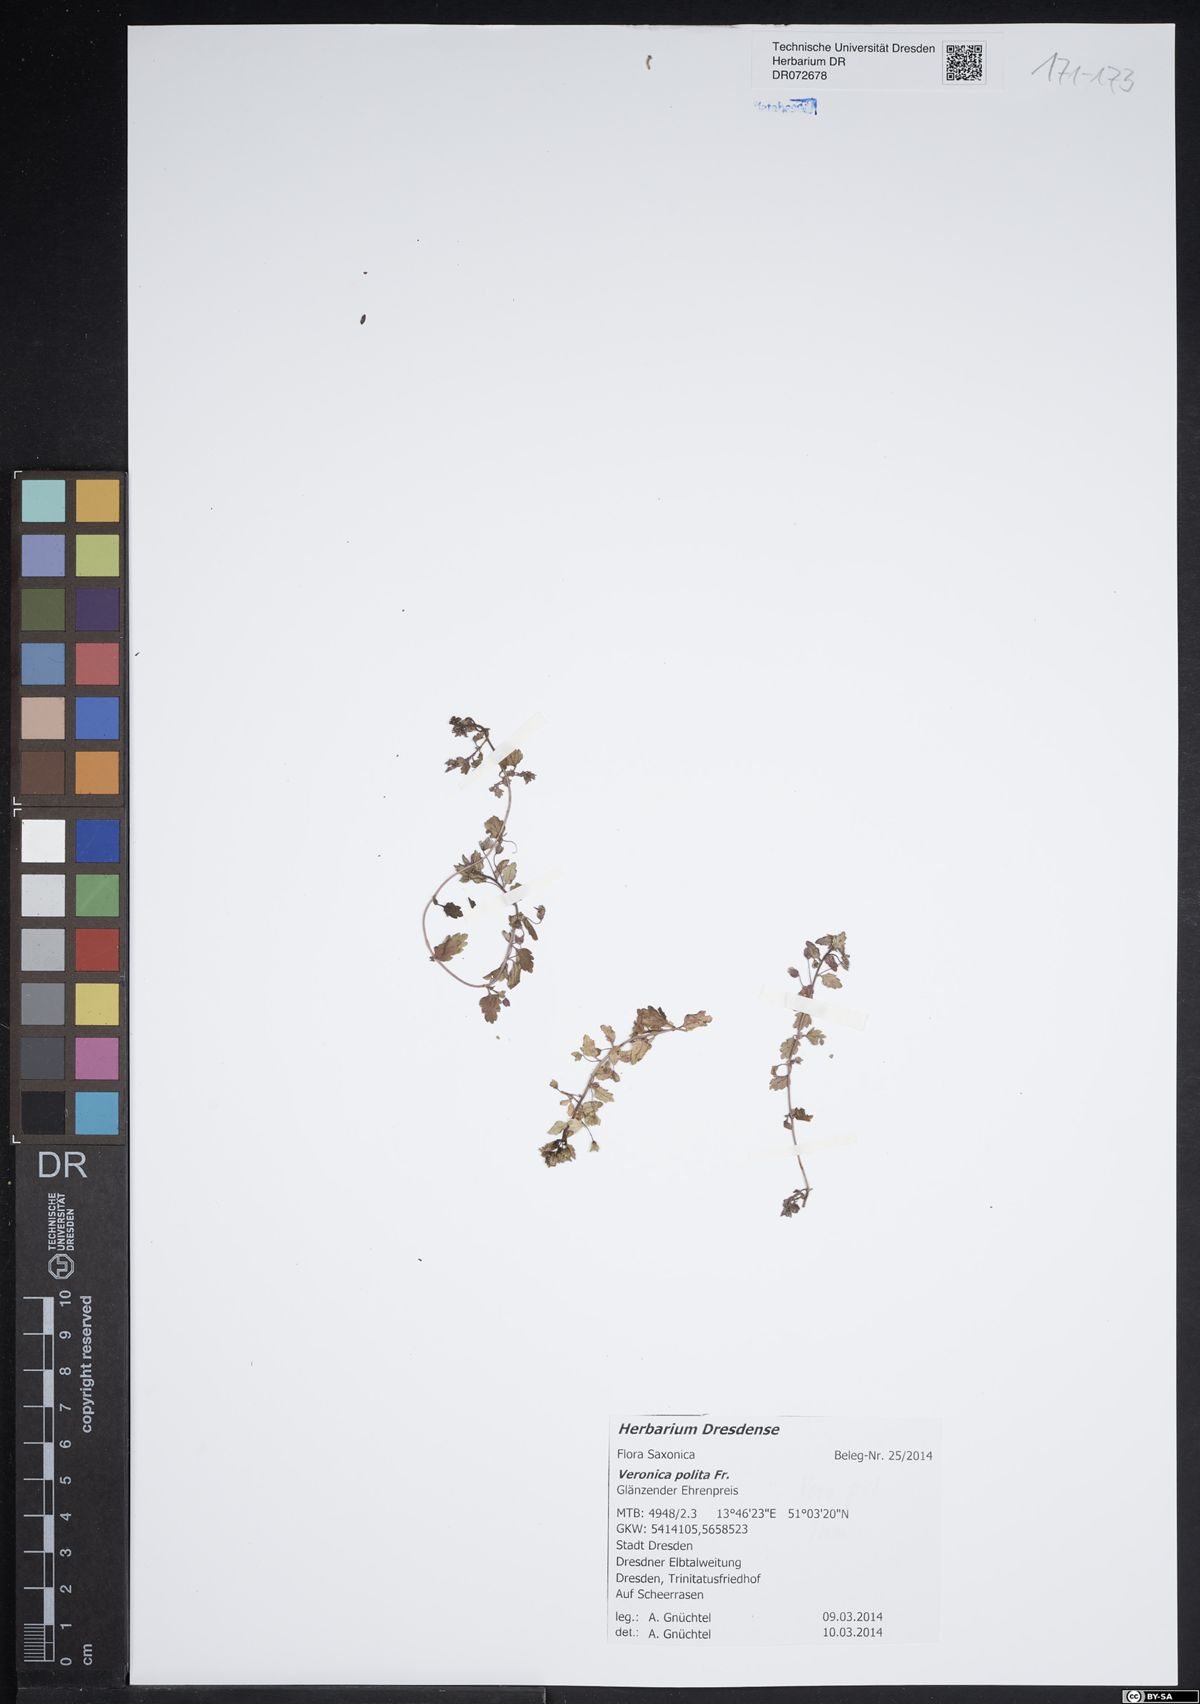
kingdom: Plantae
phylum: Tracheophyta
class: Magnoliopsida
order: Lamiales
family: Plantaginaceae
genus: Veronica
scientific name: Veronica polita
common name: Grey field-speedwell
